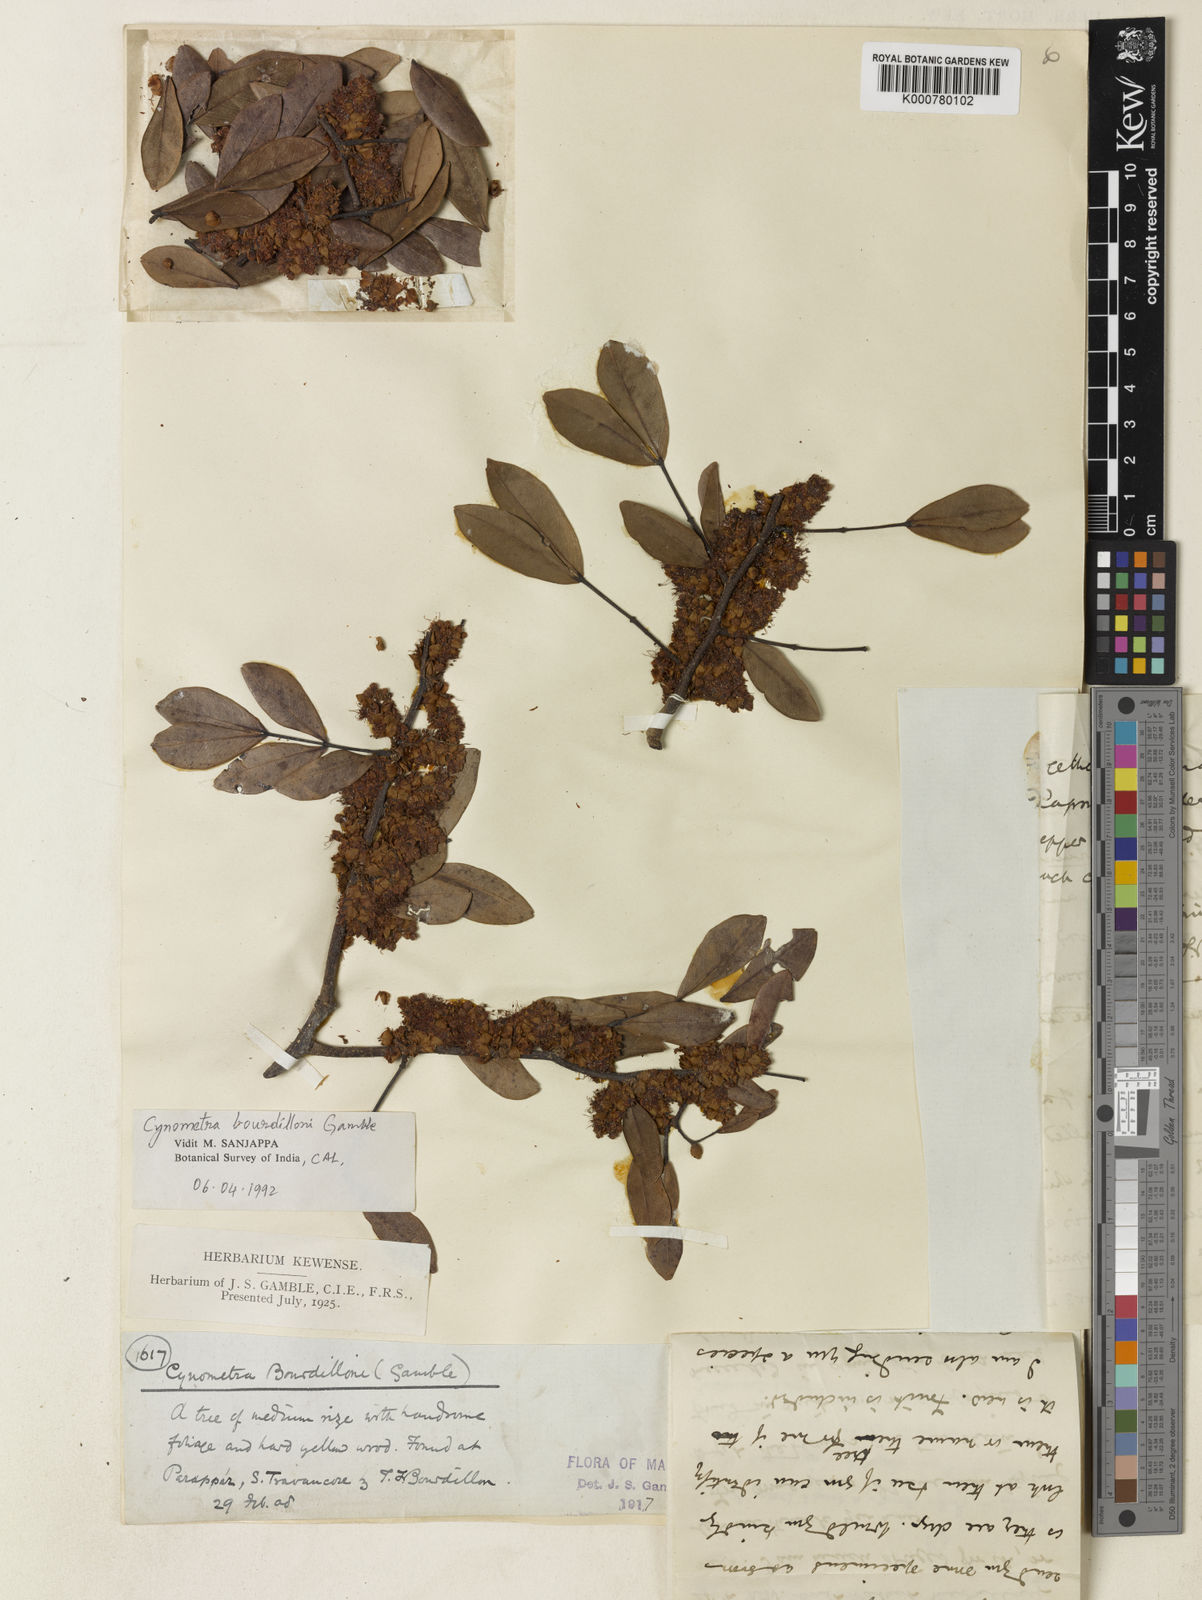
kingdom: Plantae
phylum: Tracheophyta
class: Magnoliopsida
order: Fabales
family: Fabaceae
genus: Cynometra
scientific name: Cynometra bourdillonii
